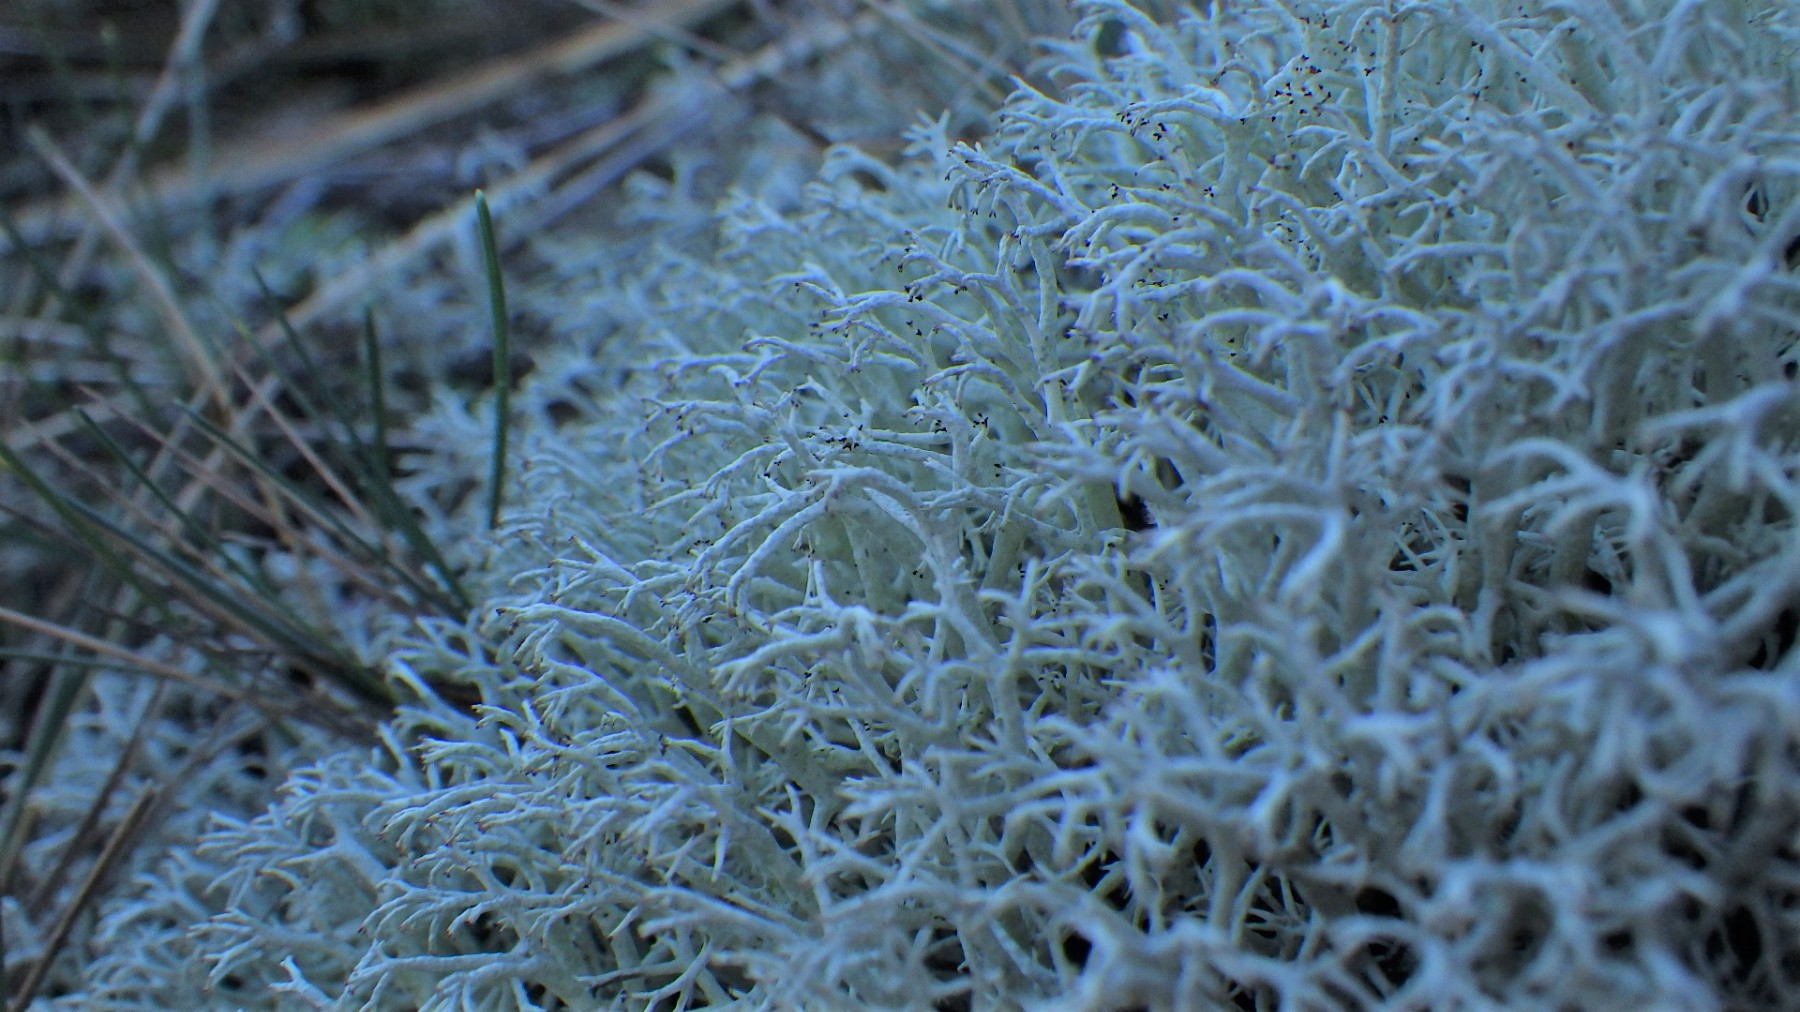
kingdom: Fungi
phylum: Ascomycota
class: Lecanoromycetes
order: Lecanorales
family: Cladoniaceae
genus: Cladonia
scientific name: Cladonia ciliata
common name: spinkel rensdyrlav
